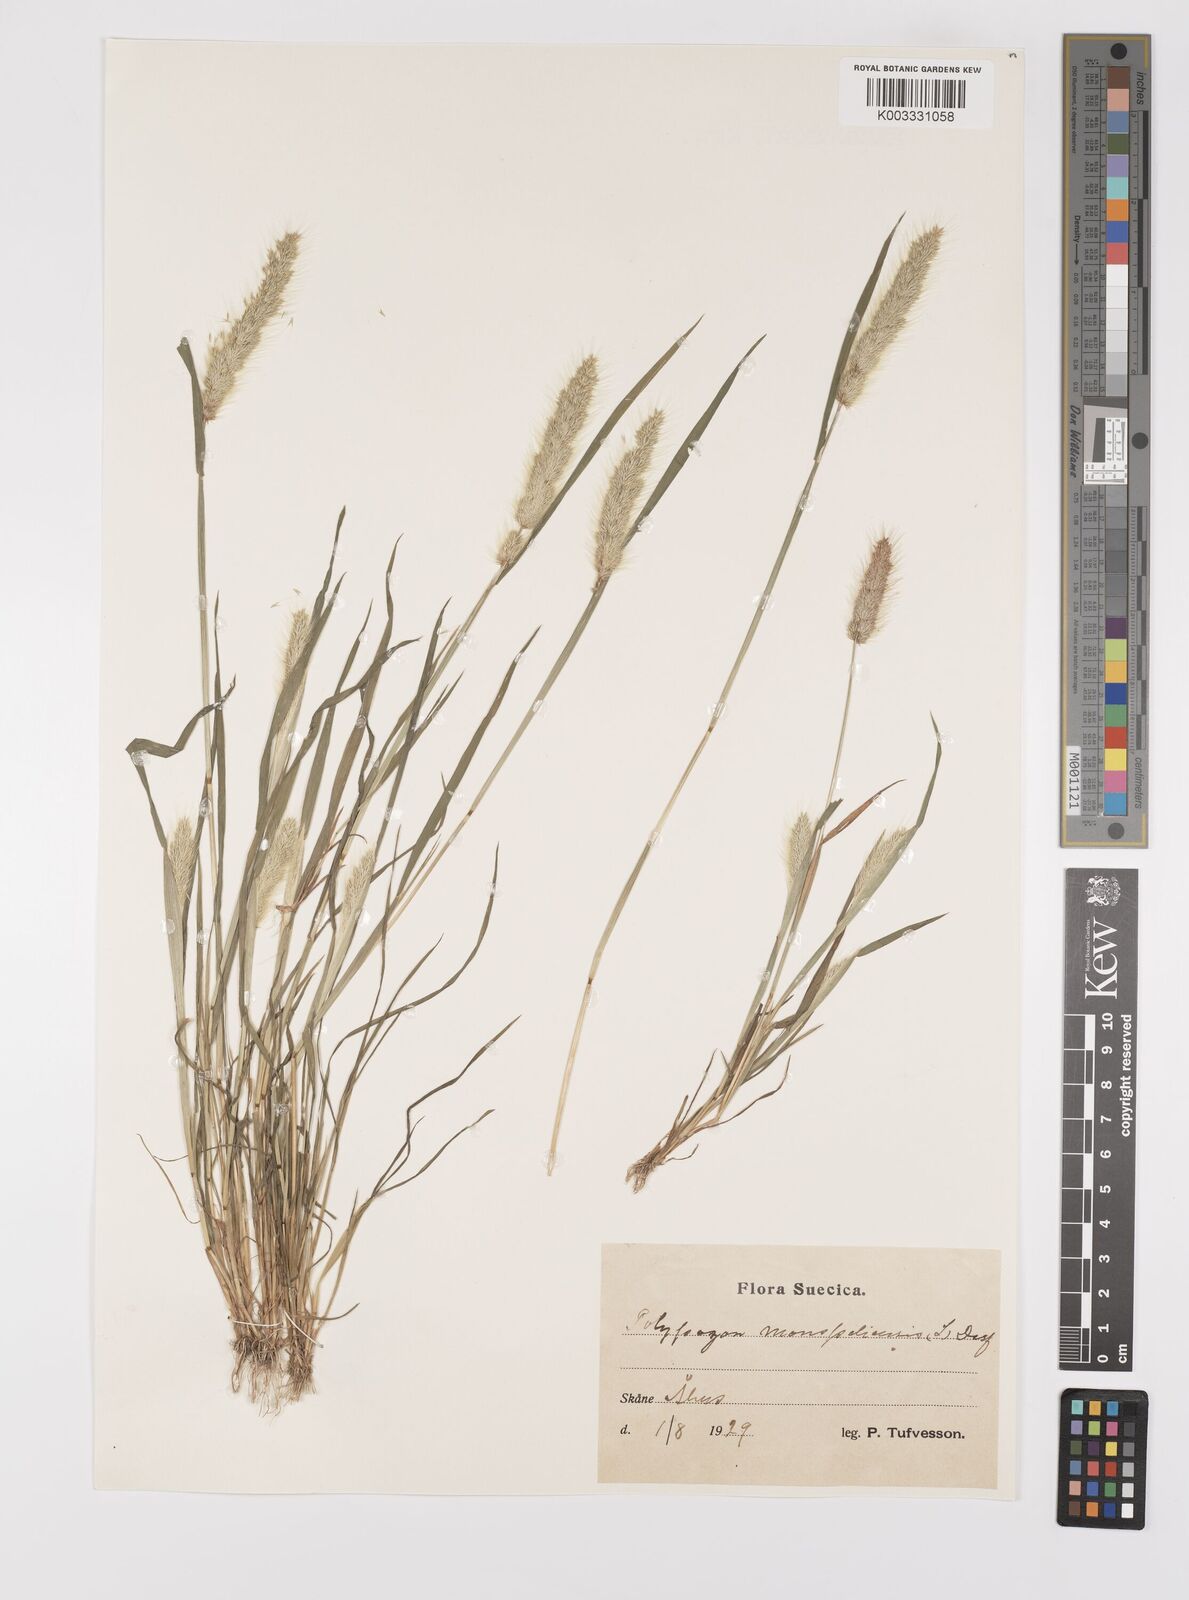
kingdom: Plantae
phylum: Tracheophyta
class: Liliopsida
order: Poales
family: Poaceae
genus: Polypogon
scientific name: Polypogon monspeliensis
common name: Annual rabbitsfoot grass
